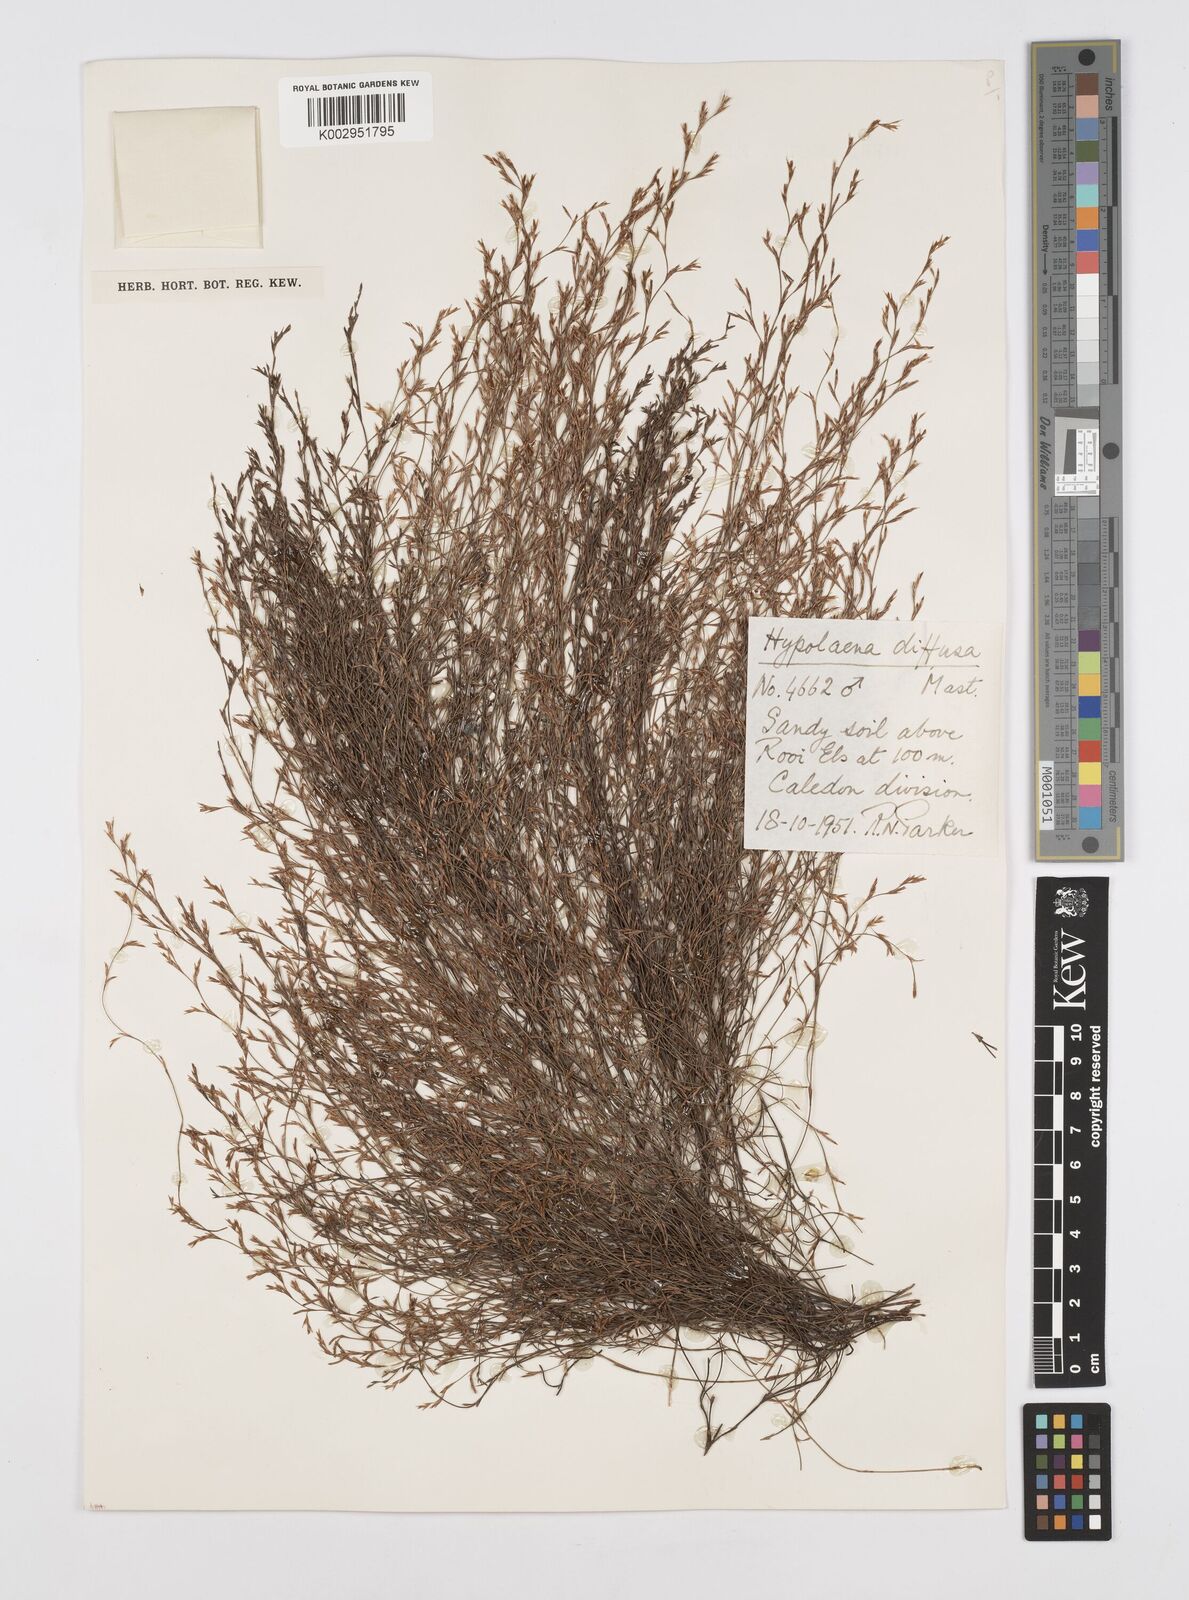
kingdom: Plantae
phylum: Tracheophyta
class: Liliopsida
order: Poales
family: Restionaceae
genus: Restio
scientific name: Restio versatilis
